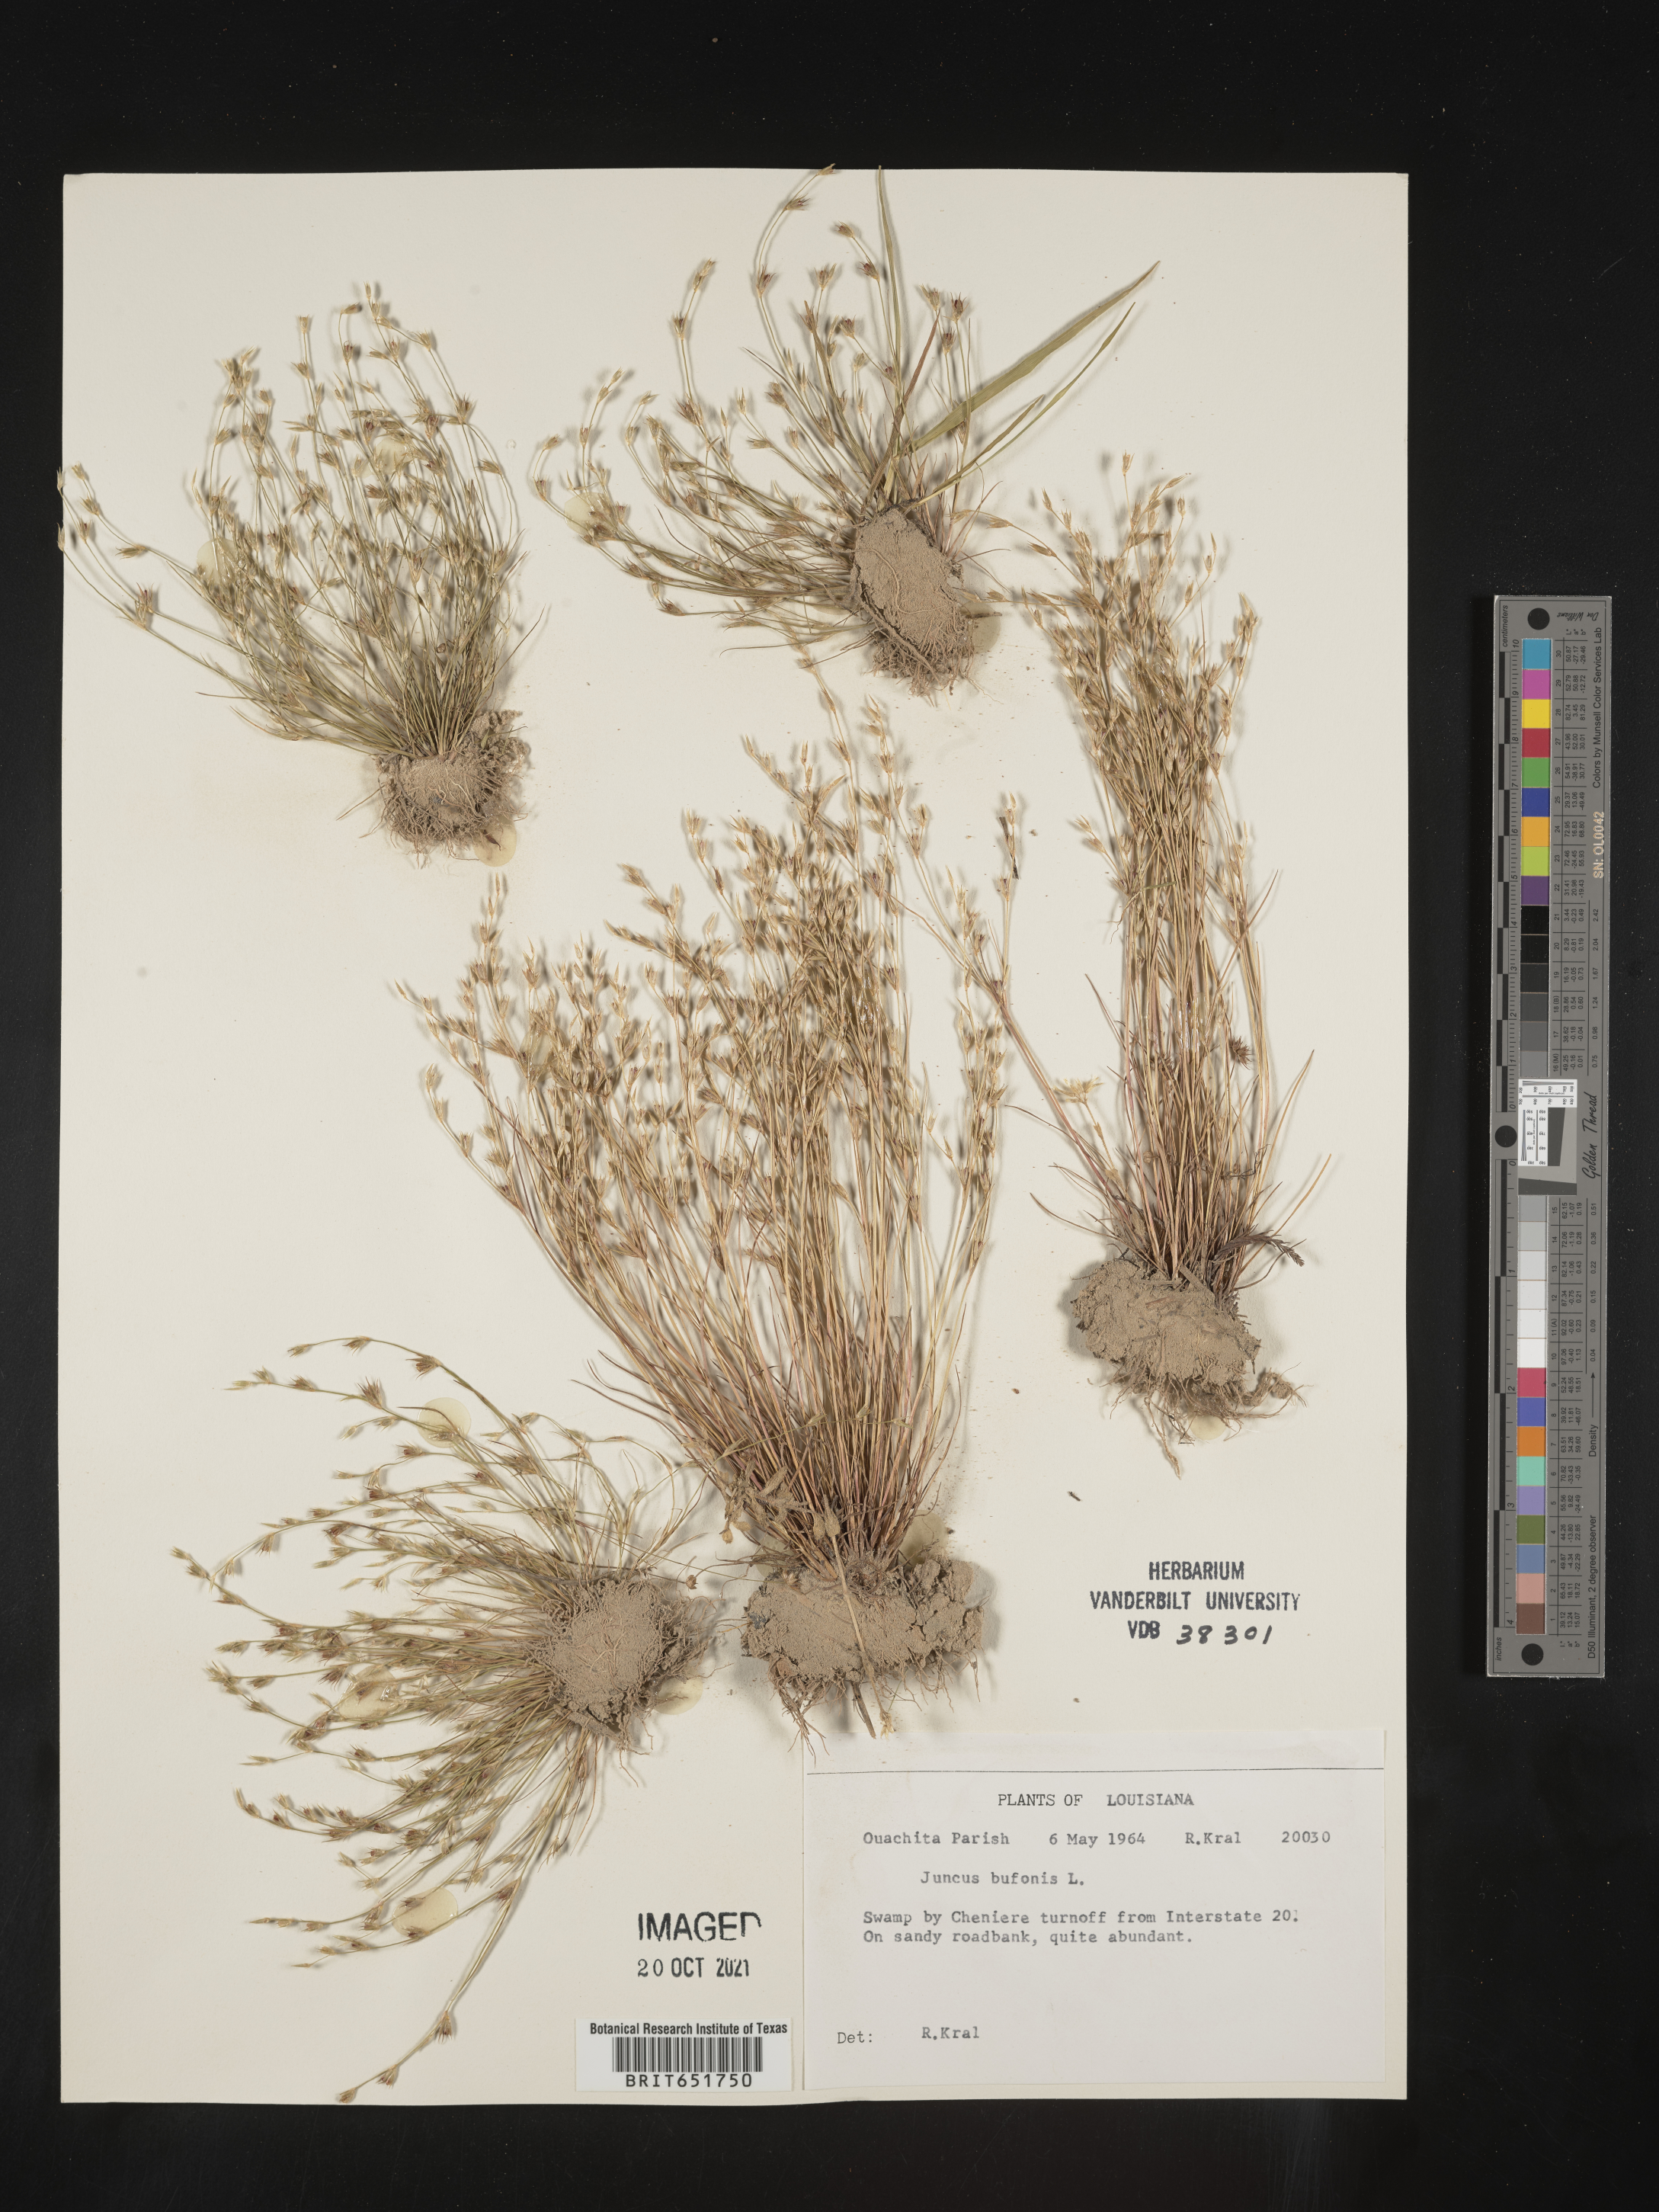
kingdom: Plantae
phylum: Tracheophyta
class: Liliopsida
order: Poales
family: Juncaceae
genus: Juncus
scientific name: Juncus bufonius
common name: Toad rush
